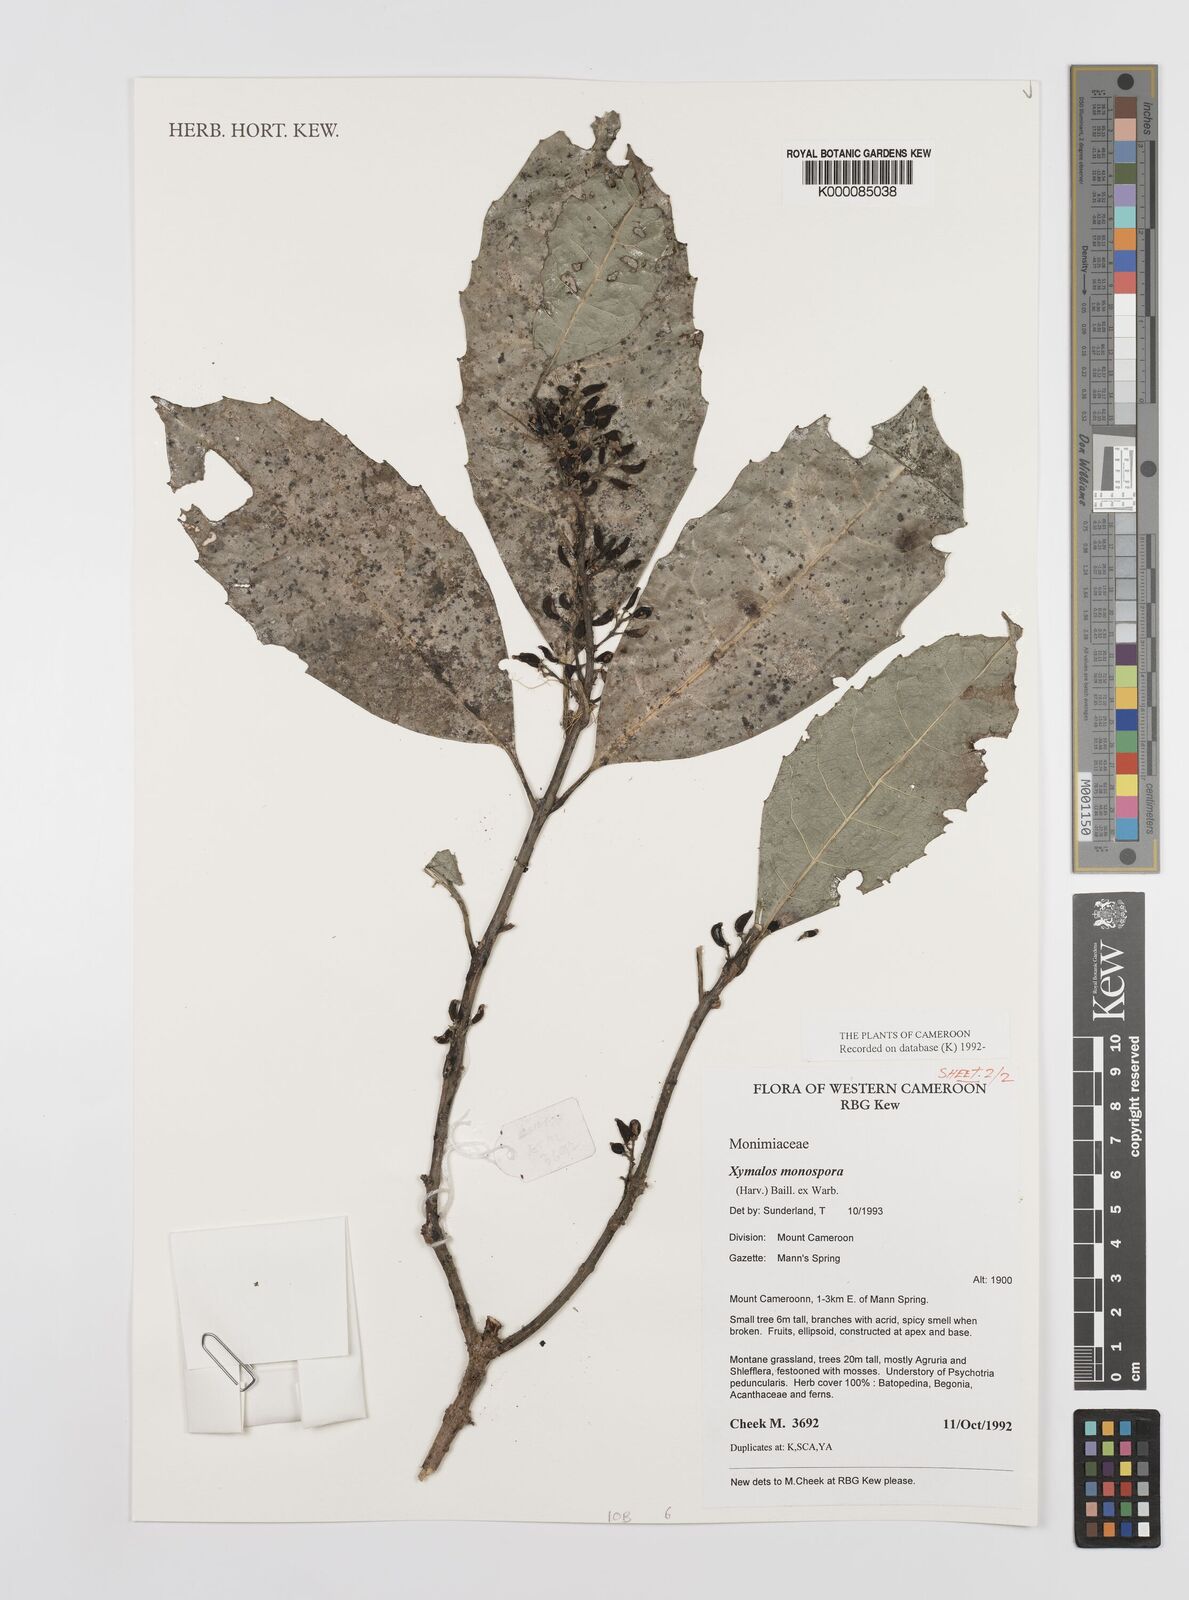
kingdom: Plantae
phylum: Tracheophyta
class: Magnoliopsida
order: Laurales
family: Monimiaceae
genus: Xymalos
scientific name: Xymalos
